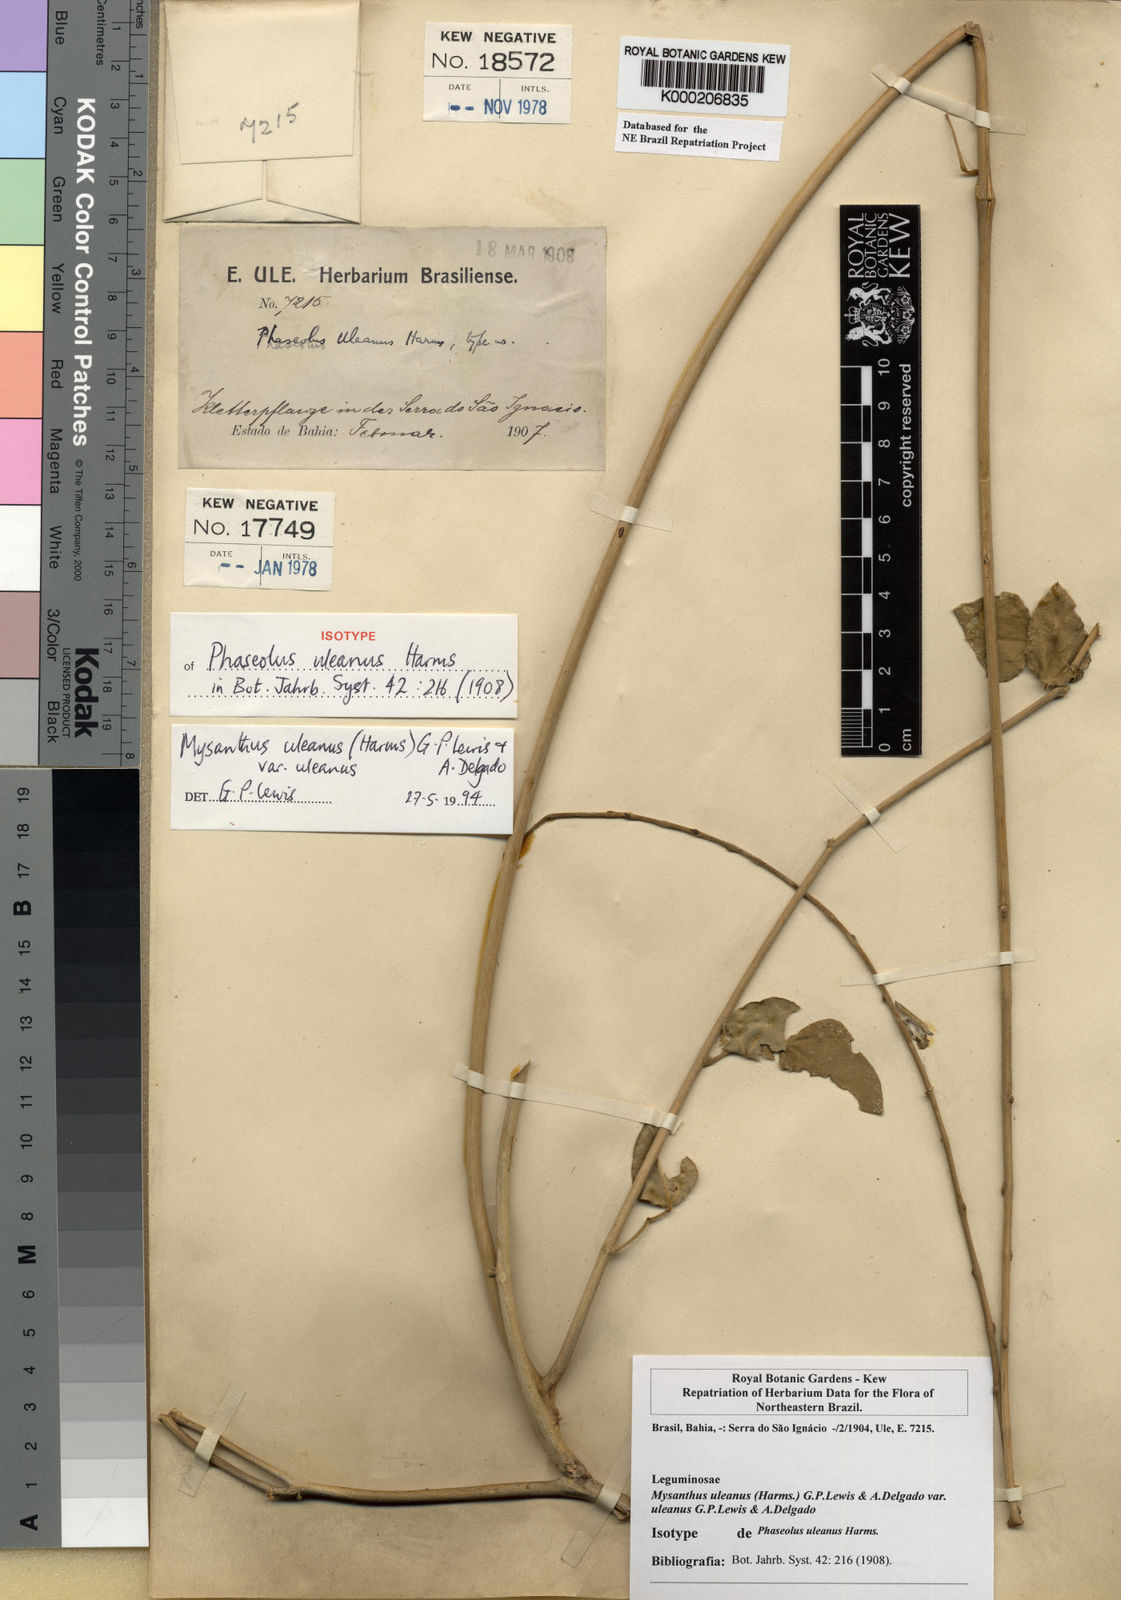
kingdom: Plantae
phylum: Tracheophyta
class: Magnoliopsida
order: Fabales
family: Fabaceae
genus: Mysanthus
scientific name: Mysanthus uleanus
